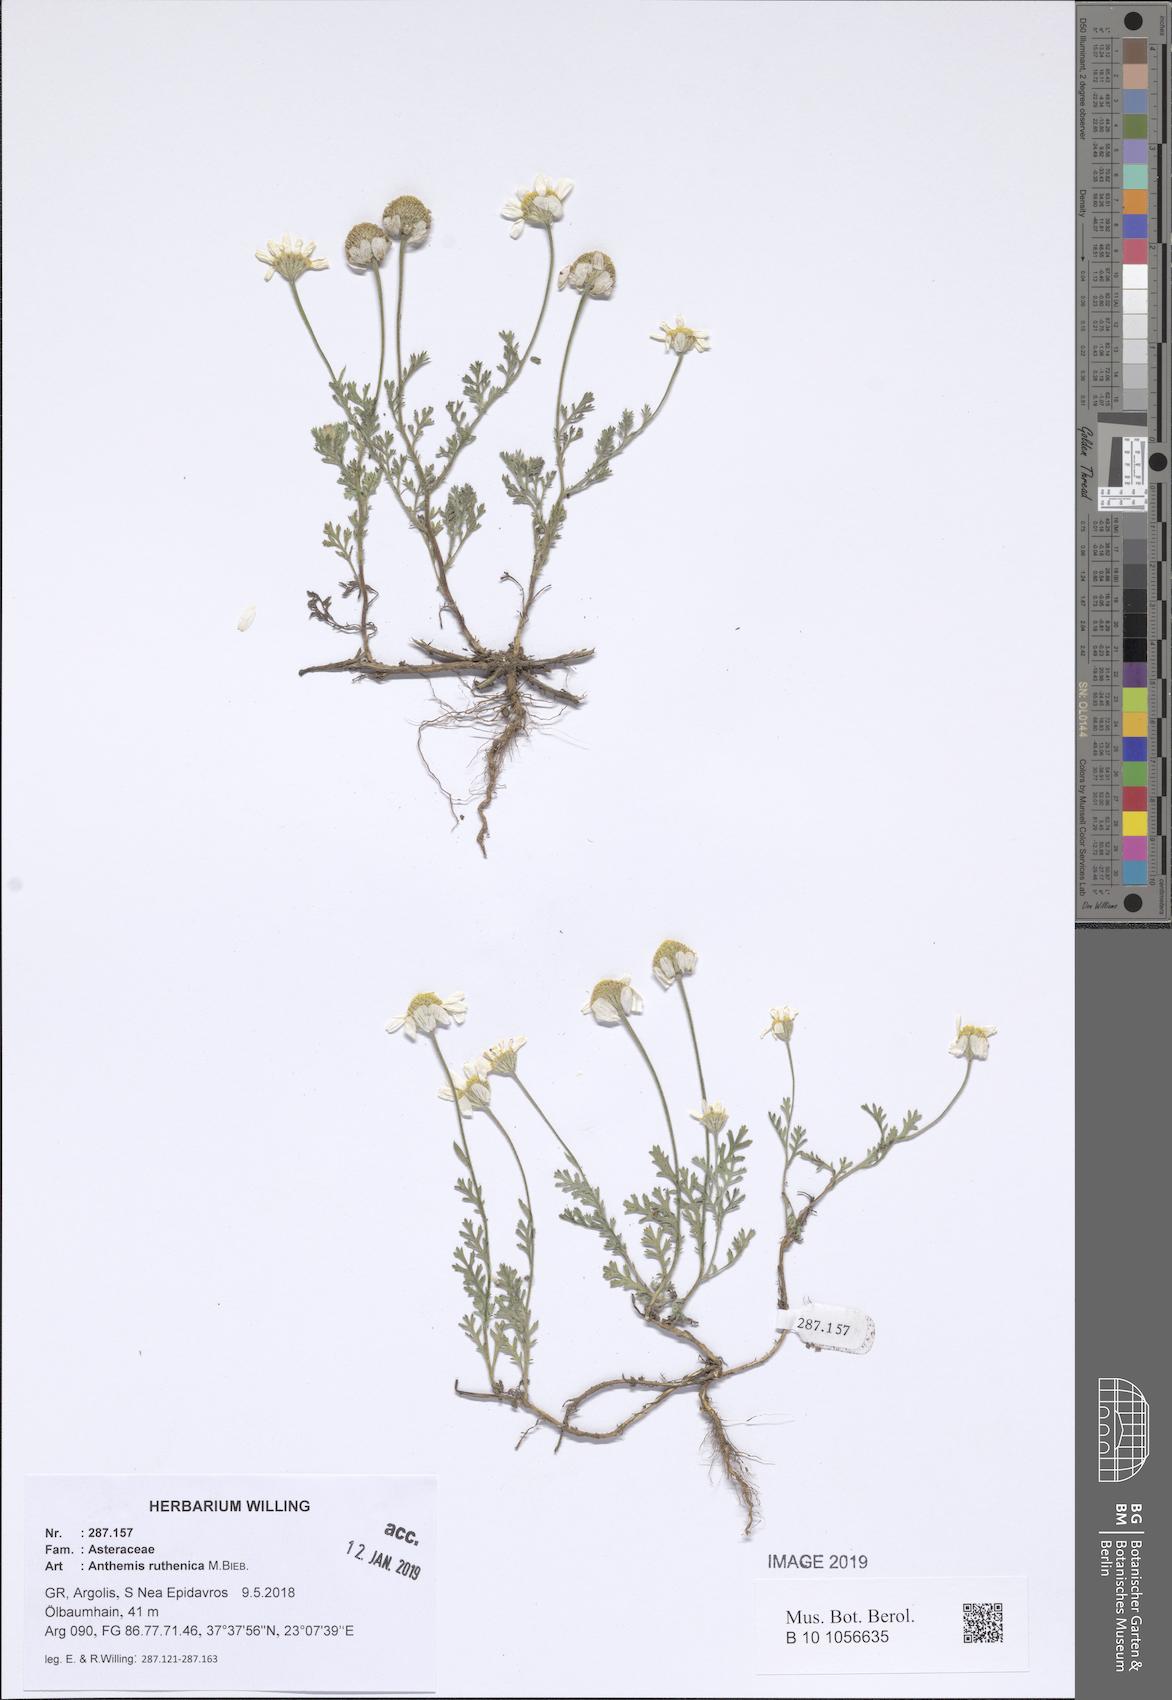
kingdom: Plantae
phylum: Tracheophyta
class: Magnoliopsida
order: Asterales
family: Asteraceae
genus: Anthemis
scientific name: Anthemis ruthenica
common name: Eastern chamomile
